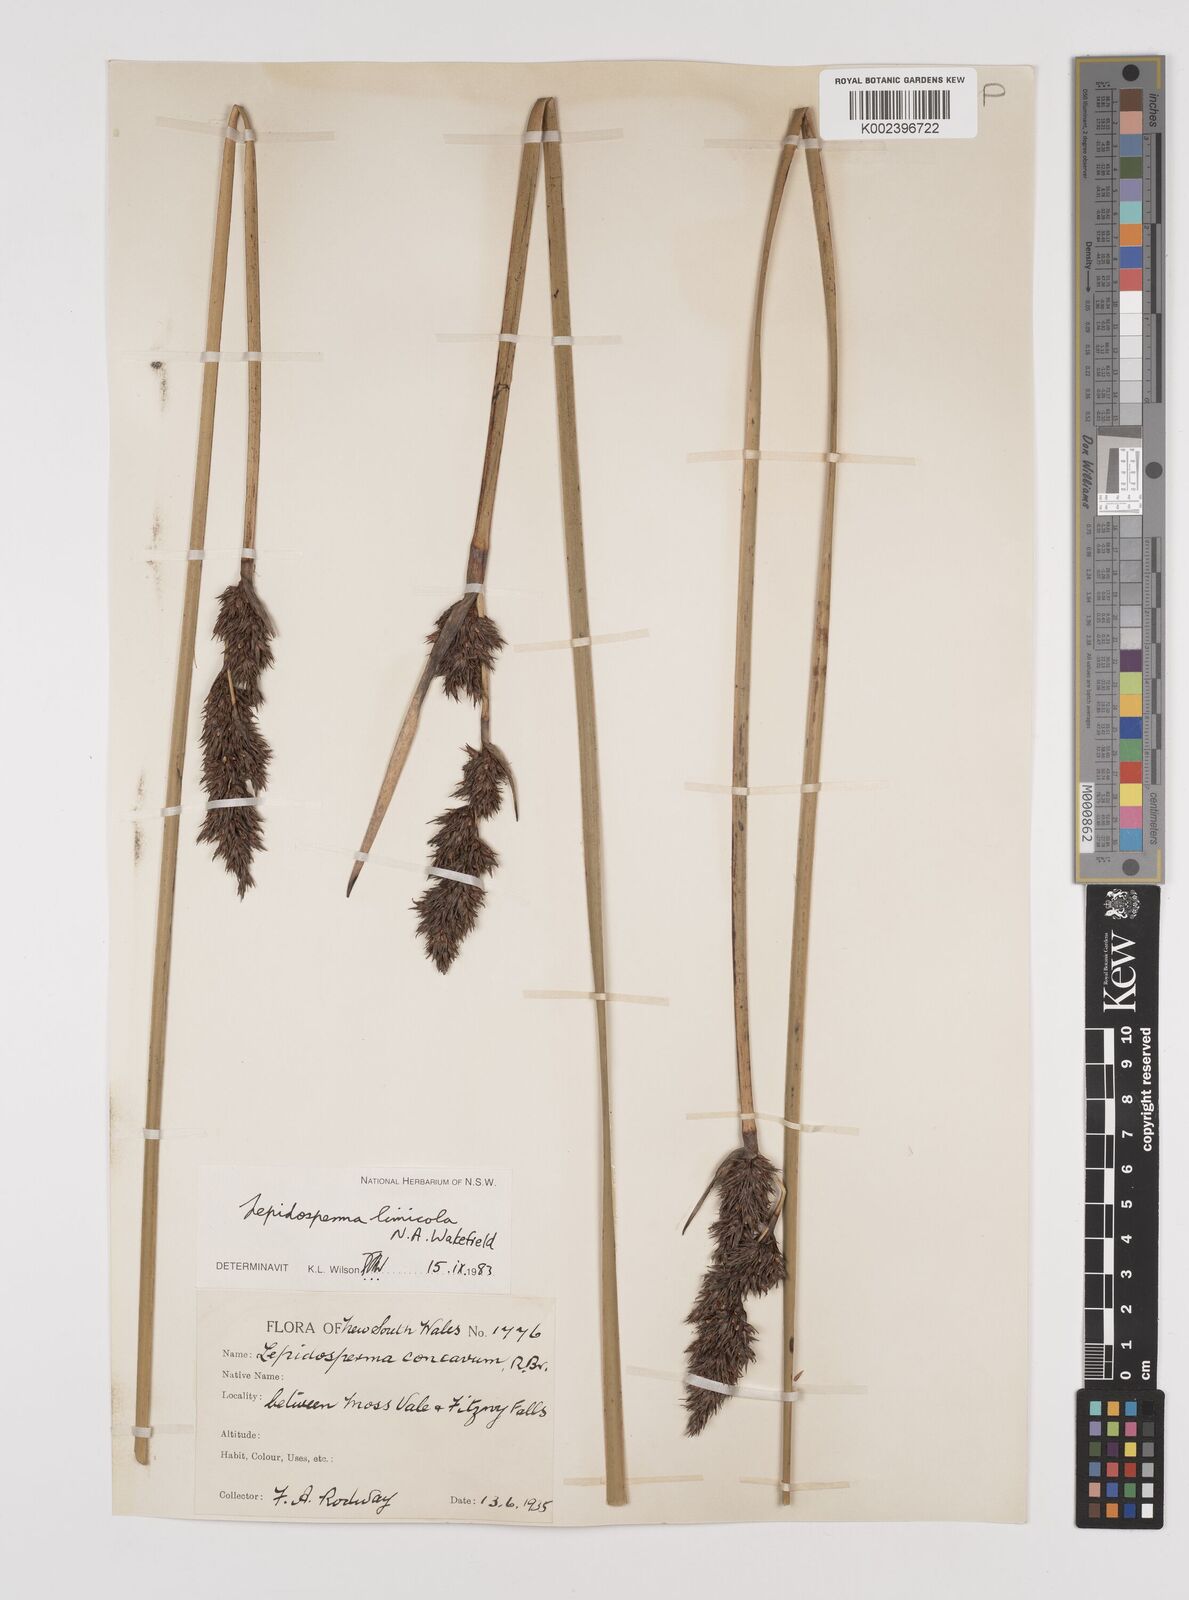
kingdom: Plantae
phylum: Tracheophyta
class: Liliopsida
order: Poales
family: Cyperaceae
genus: Lepidosperma
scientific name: Lepidosperma limicola
